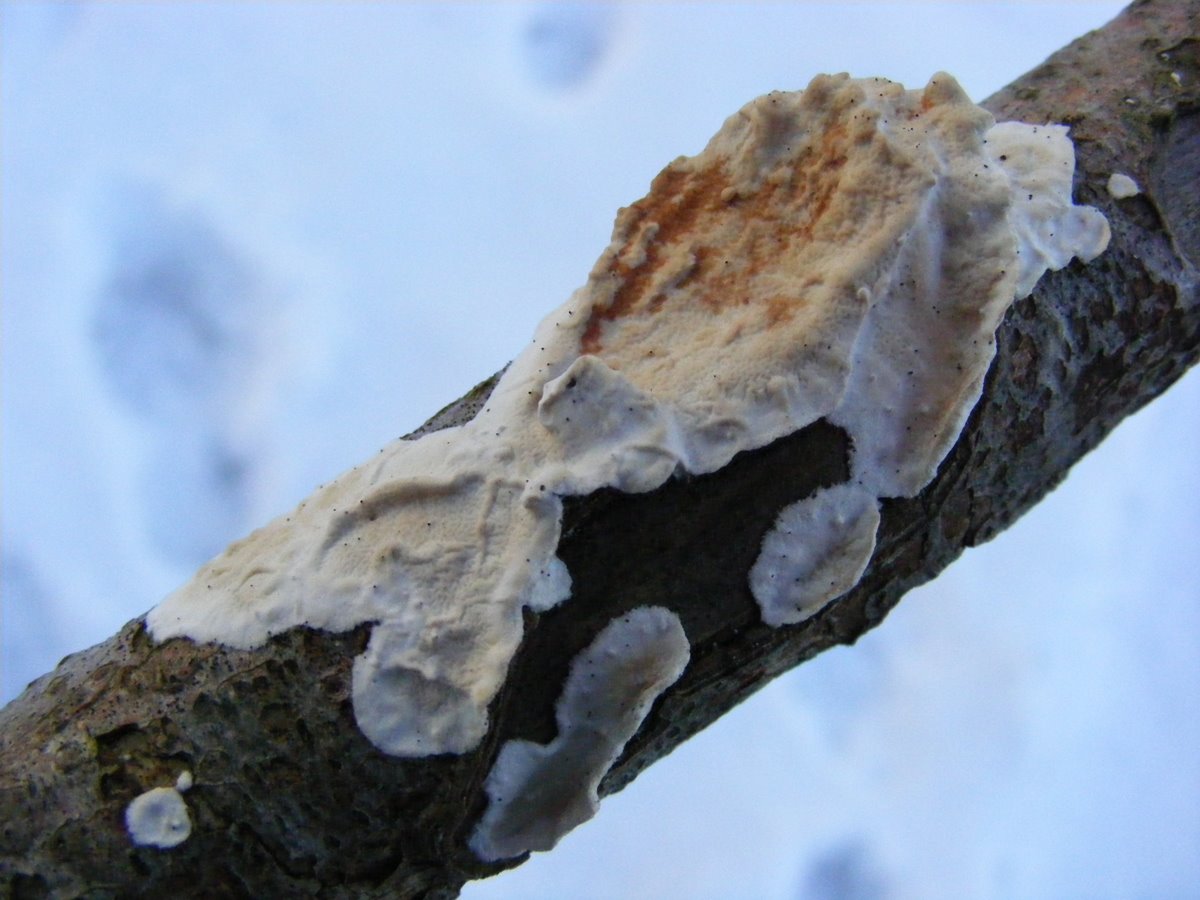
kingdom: Fungi
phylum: Basidiomycota
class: Agaricomycetes
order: Polyporales
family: Irpicaceae
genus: Byssomerulius
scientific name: Byssomerulius corium
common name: læder-åresvamp
